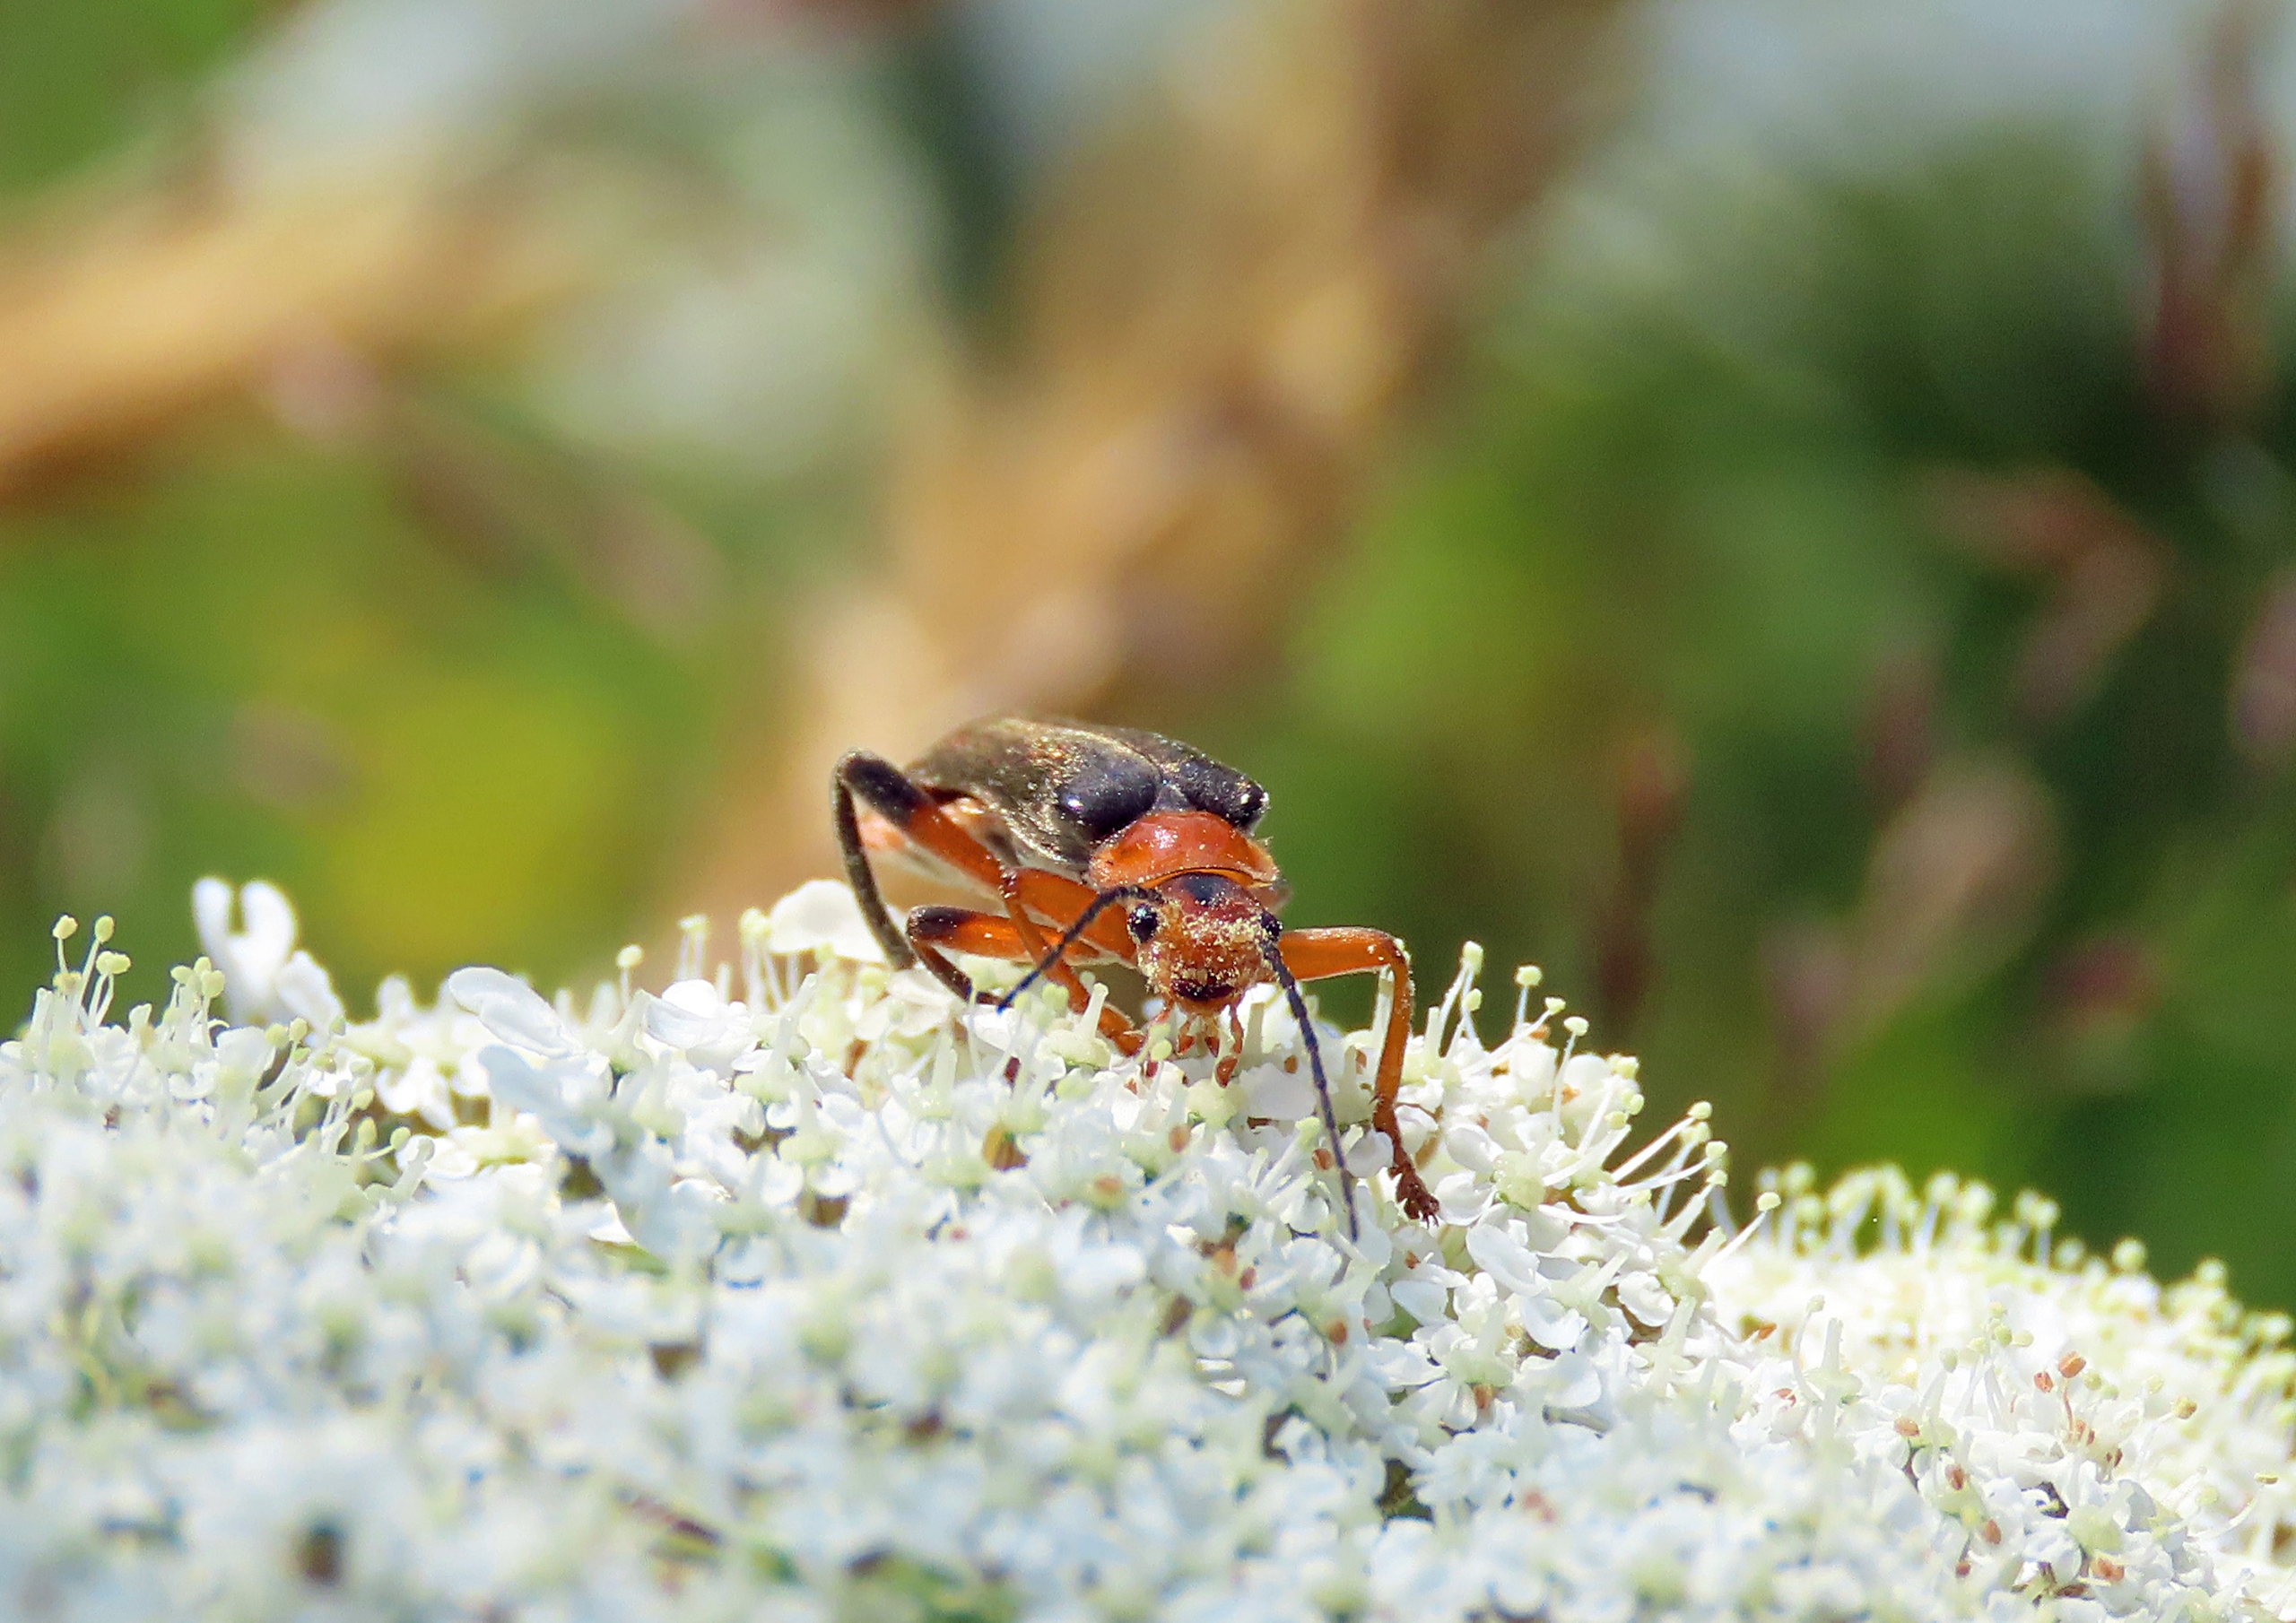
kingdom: Animalia
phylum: Arthropoda
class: Insecta
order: Coleoptera
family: Cantharidae
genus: Cantharis
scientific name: Cantharis livida
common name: Gul blødvinge
